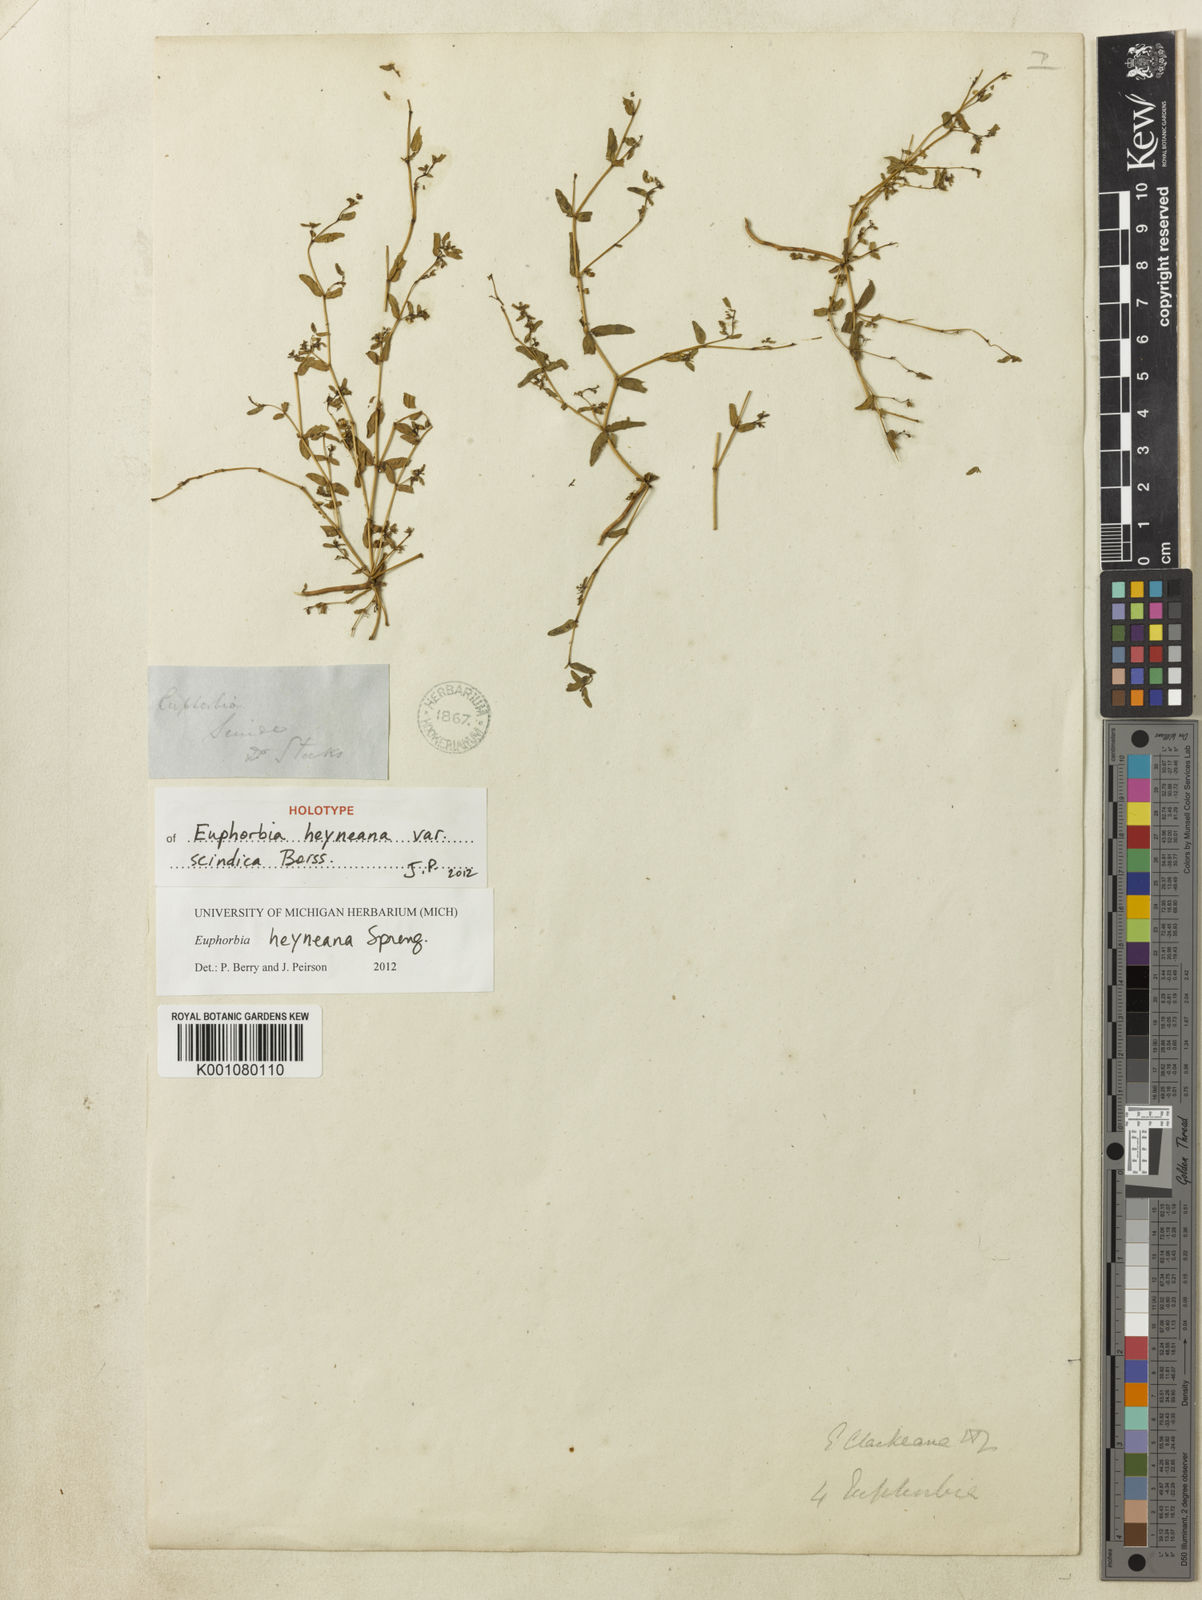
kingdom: Plantae
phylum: Tracheophyta
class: Magnoliopsida
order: Malpighiales
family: Euphorbiaceae
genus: Euphorbia
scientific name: Euphorbia heyneana
